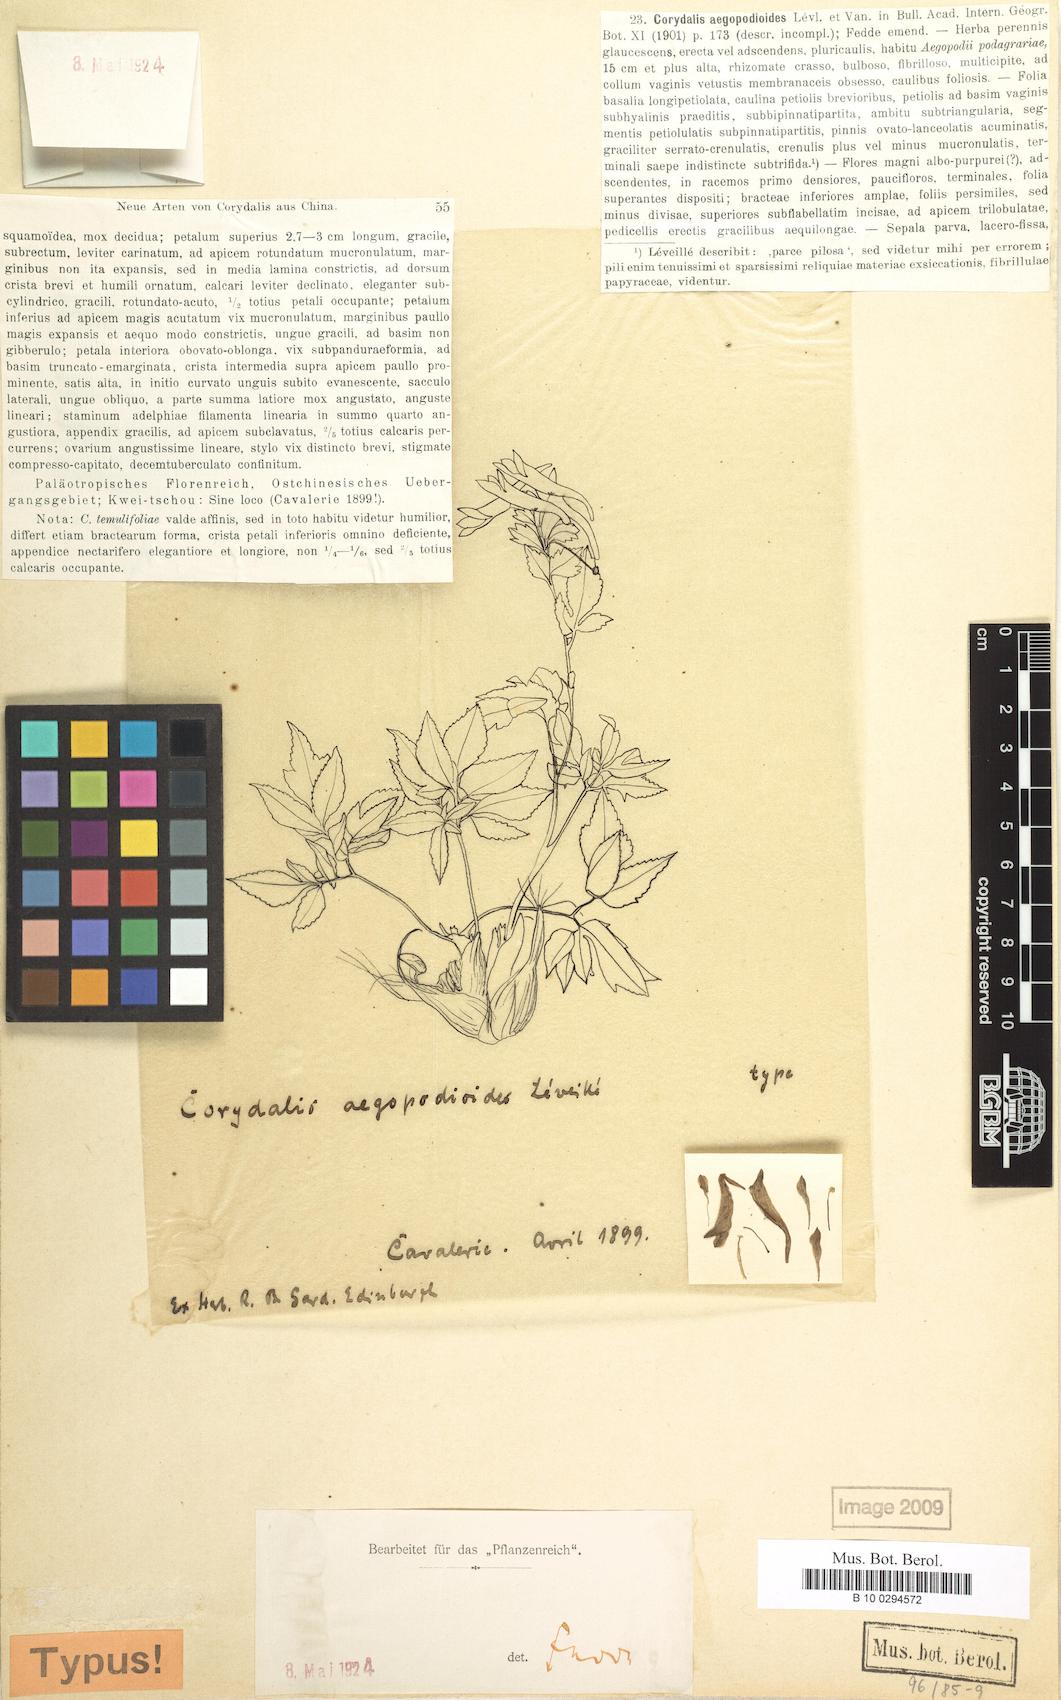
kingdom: Plantae
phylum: Tracheophyta
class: Magnoliopsida
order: Ranunculales
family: Papaveraceae
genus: Corydalis
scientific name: Corydalis temulifolia
